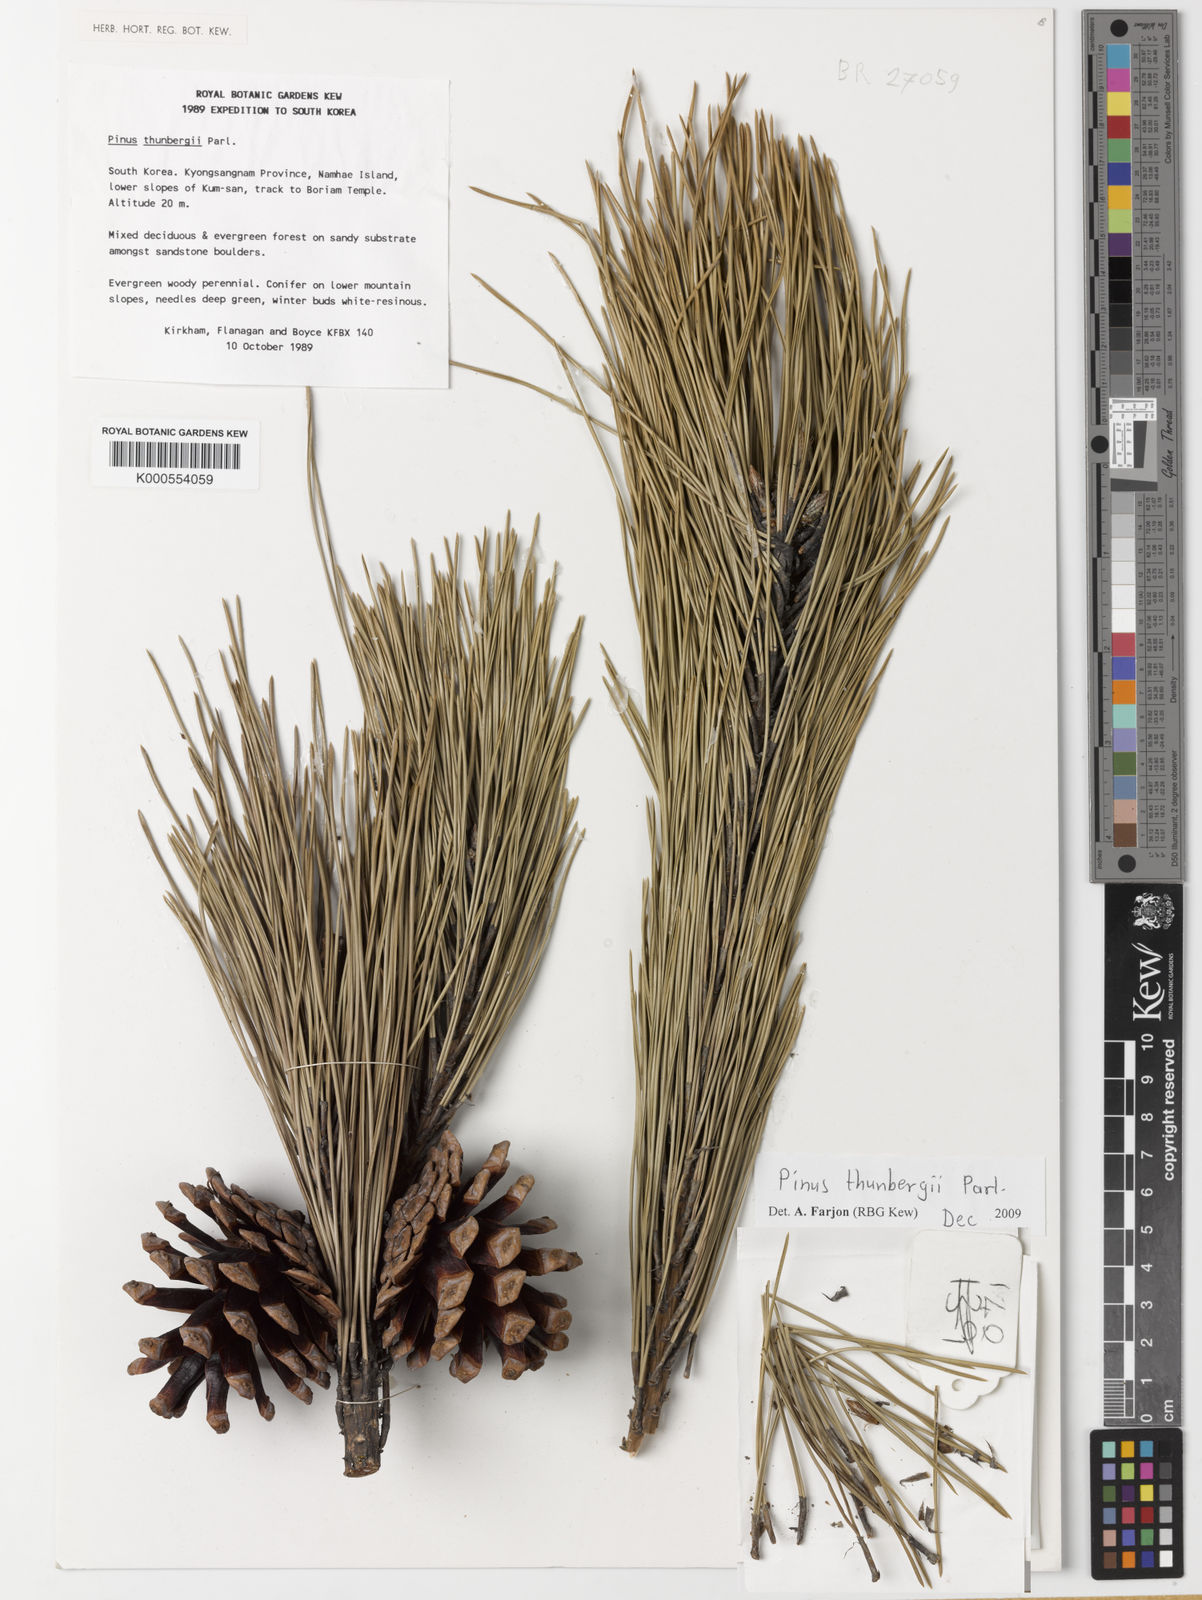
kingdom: Plantae
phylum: Tracheophyta
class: Pinopsida
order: Pinales
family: Pinaceae
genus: Pinus
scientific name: Pinus thunbergii
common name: Japanese black pine
